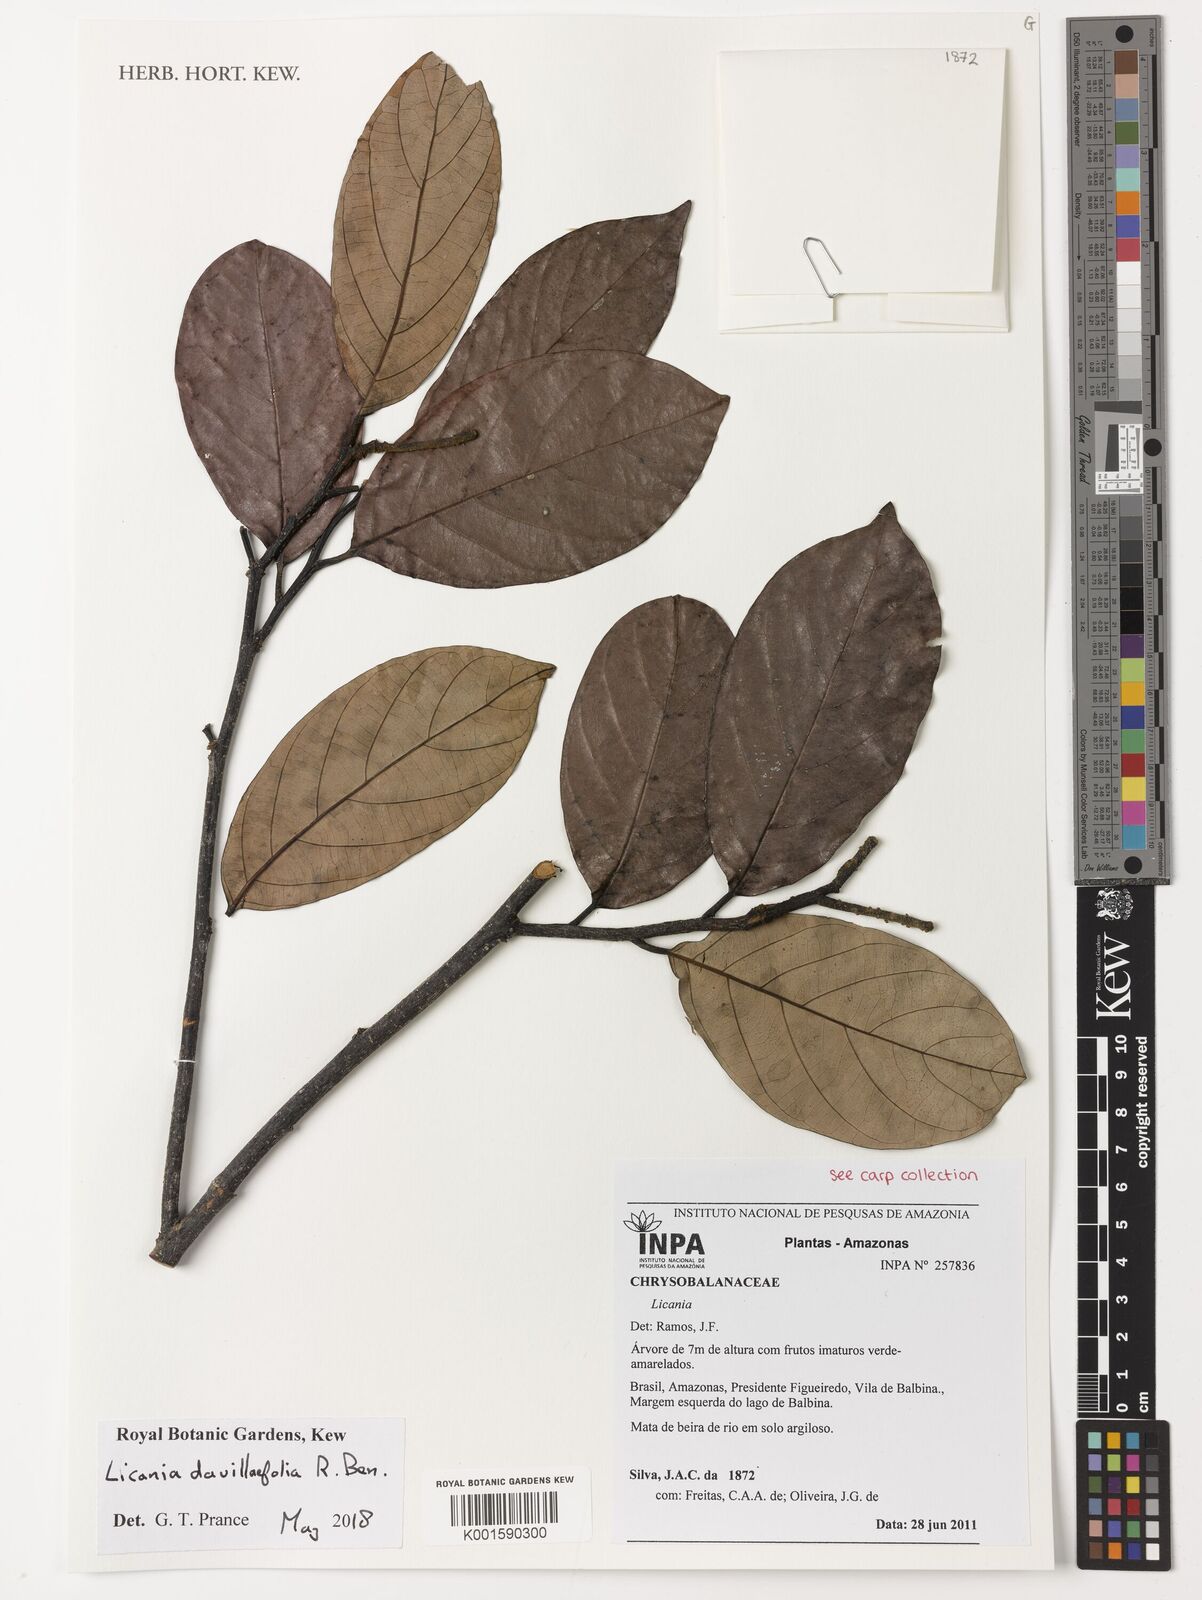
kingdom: Plantae
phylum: Tracheophyta
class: Magnoliopsida
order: Malpighiales
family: Chrysobalanaceae
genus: Licania
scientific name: Licania
